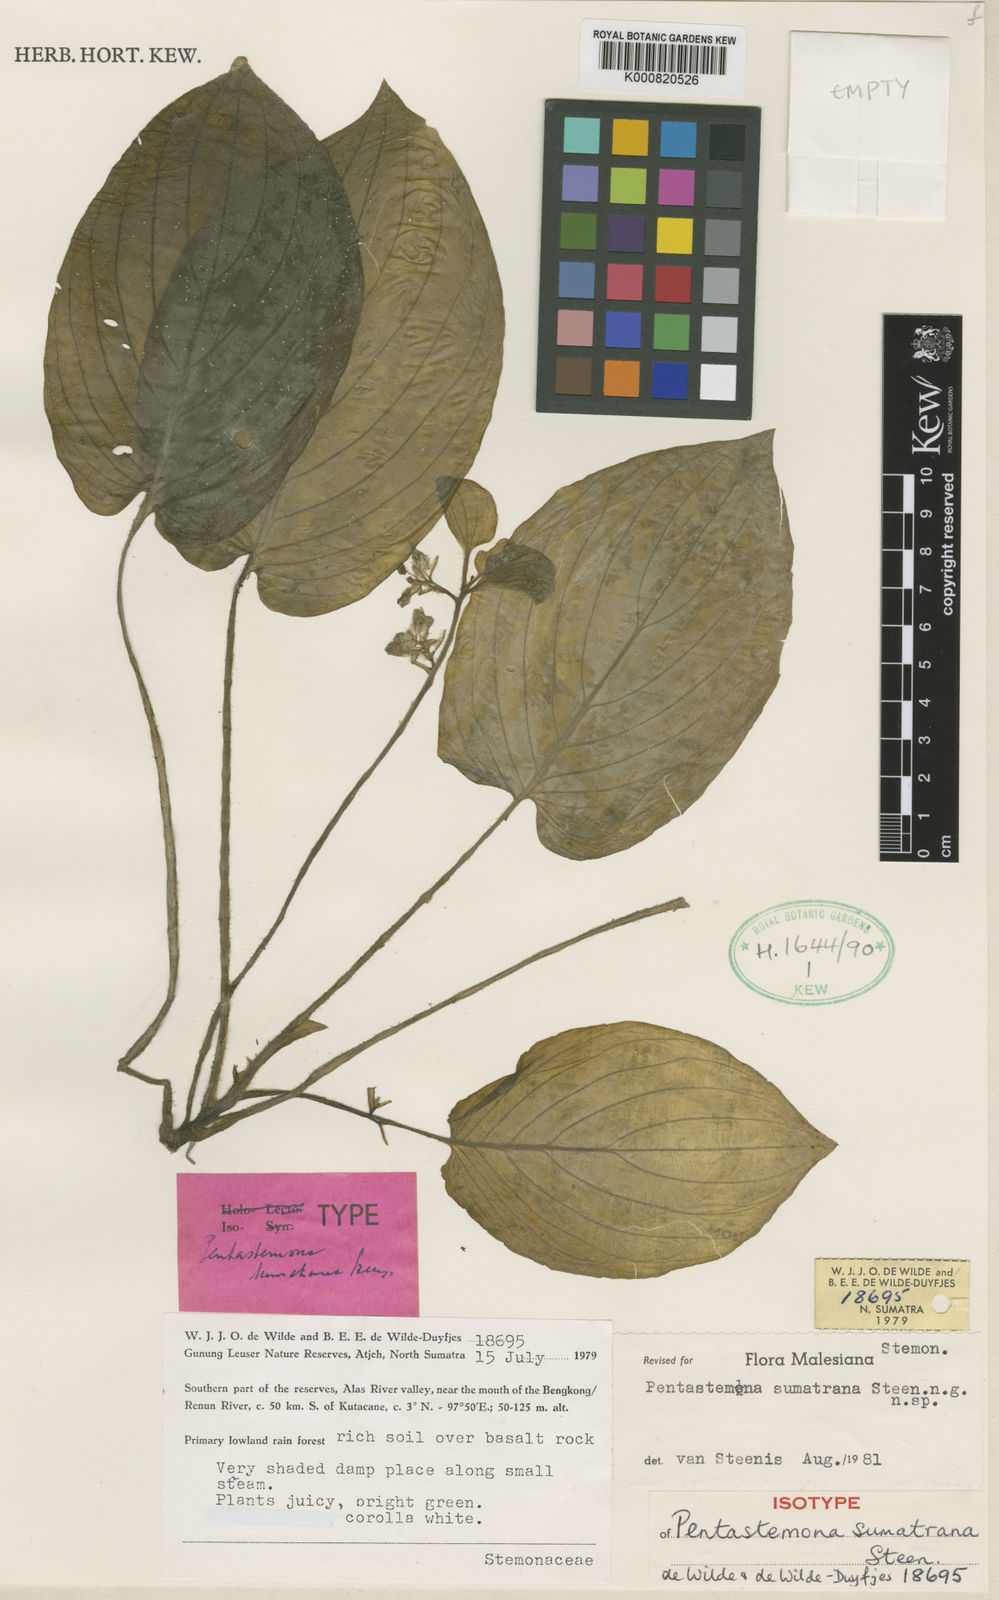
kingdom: Plantae
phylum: Tracheophyta
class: Liliopsida
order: Pandanales
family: Stemonaceae
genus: Pentastemona
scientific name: Pentastemona sumatrana
